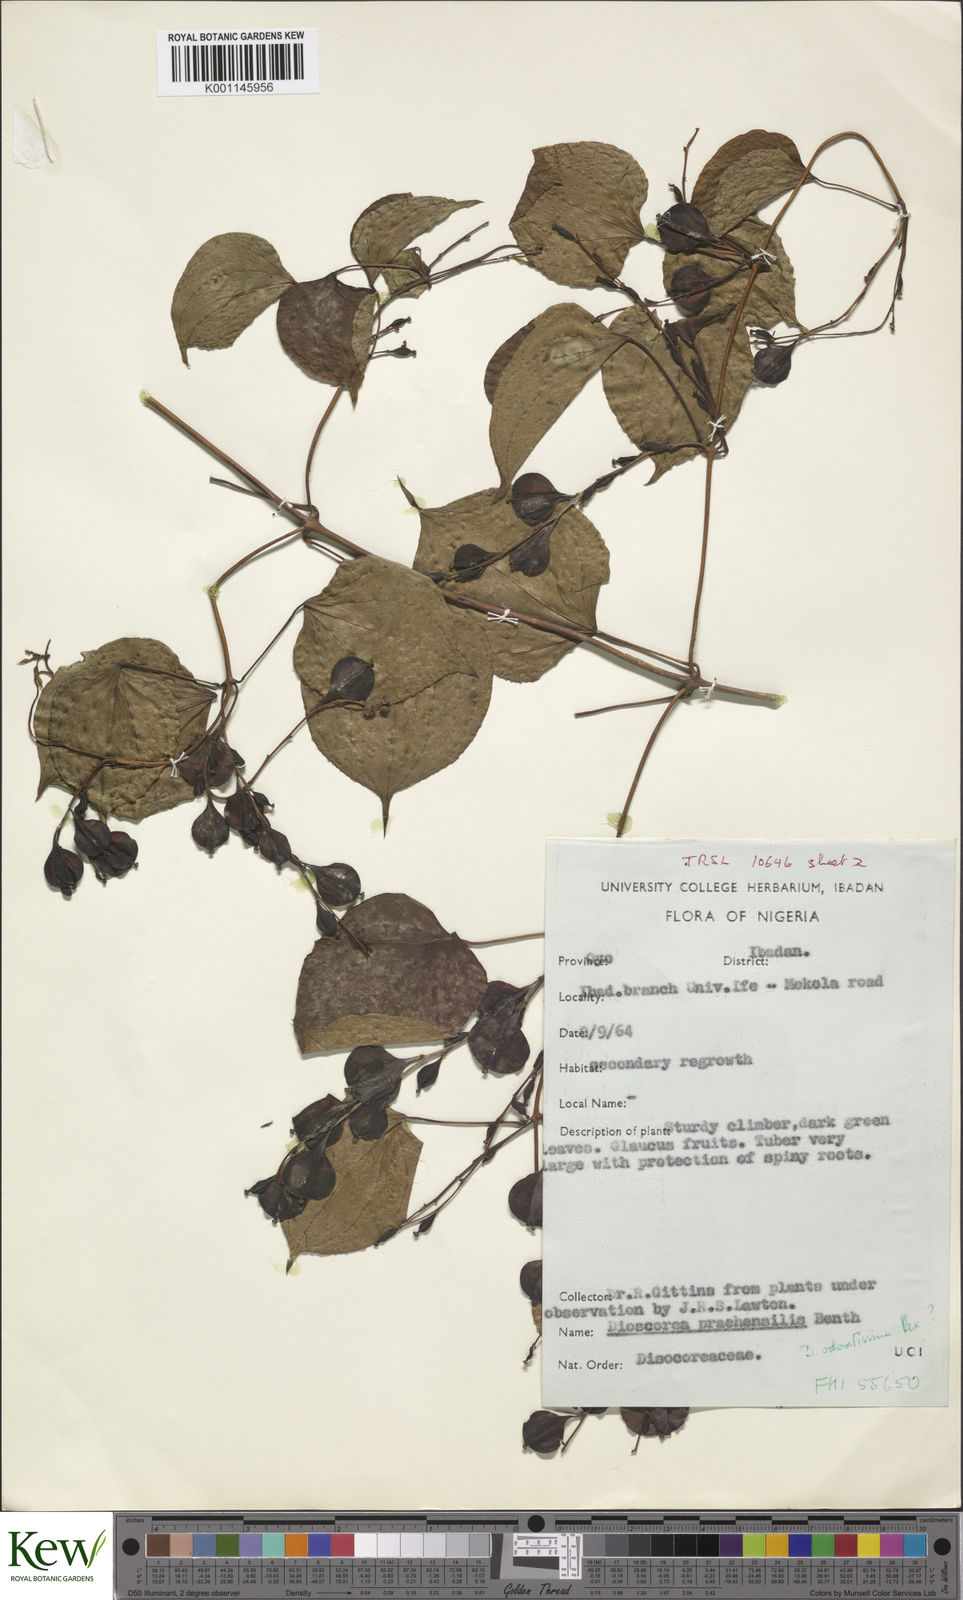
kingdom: Plantae
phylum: Tracheophyta
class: Liliopsida
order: Dioscoreales
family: Dioscoreaceae
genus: Dioscorea
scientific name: Dioscorea praehensilis
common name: Bush yam
